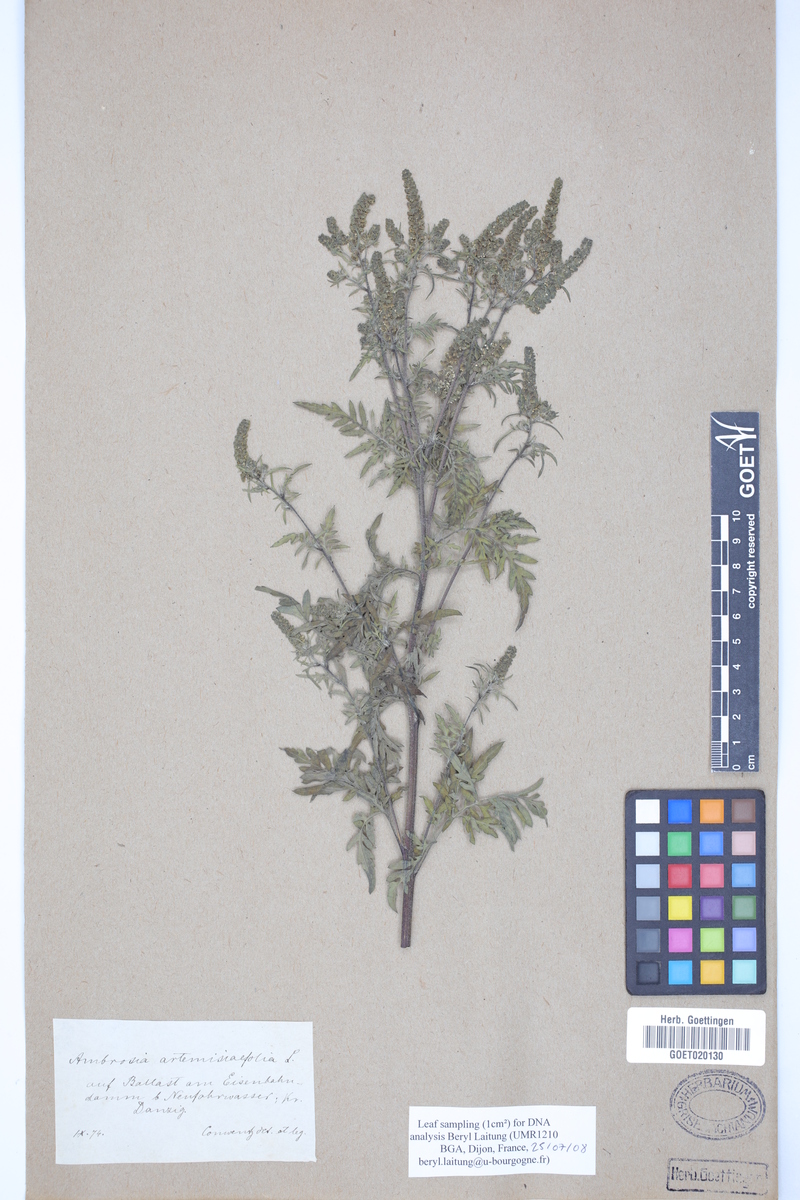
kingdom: Plantae
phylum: Tracheophyta
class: Magnoliopsida
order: Asterales
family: Asteraceae
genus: Ambrosia
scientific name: Ambrosia artemisiifolia
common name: Annual ragweed
